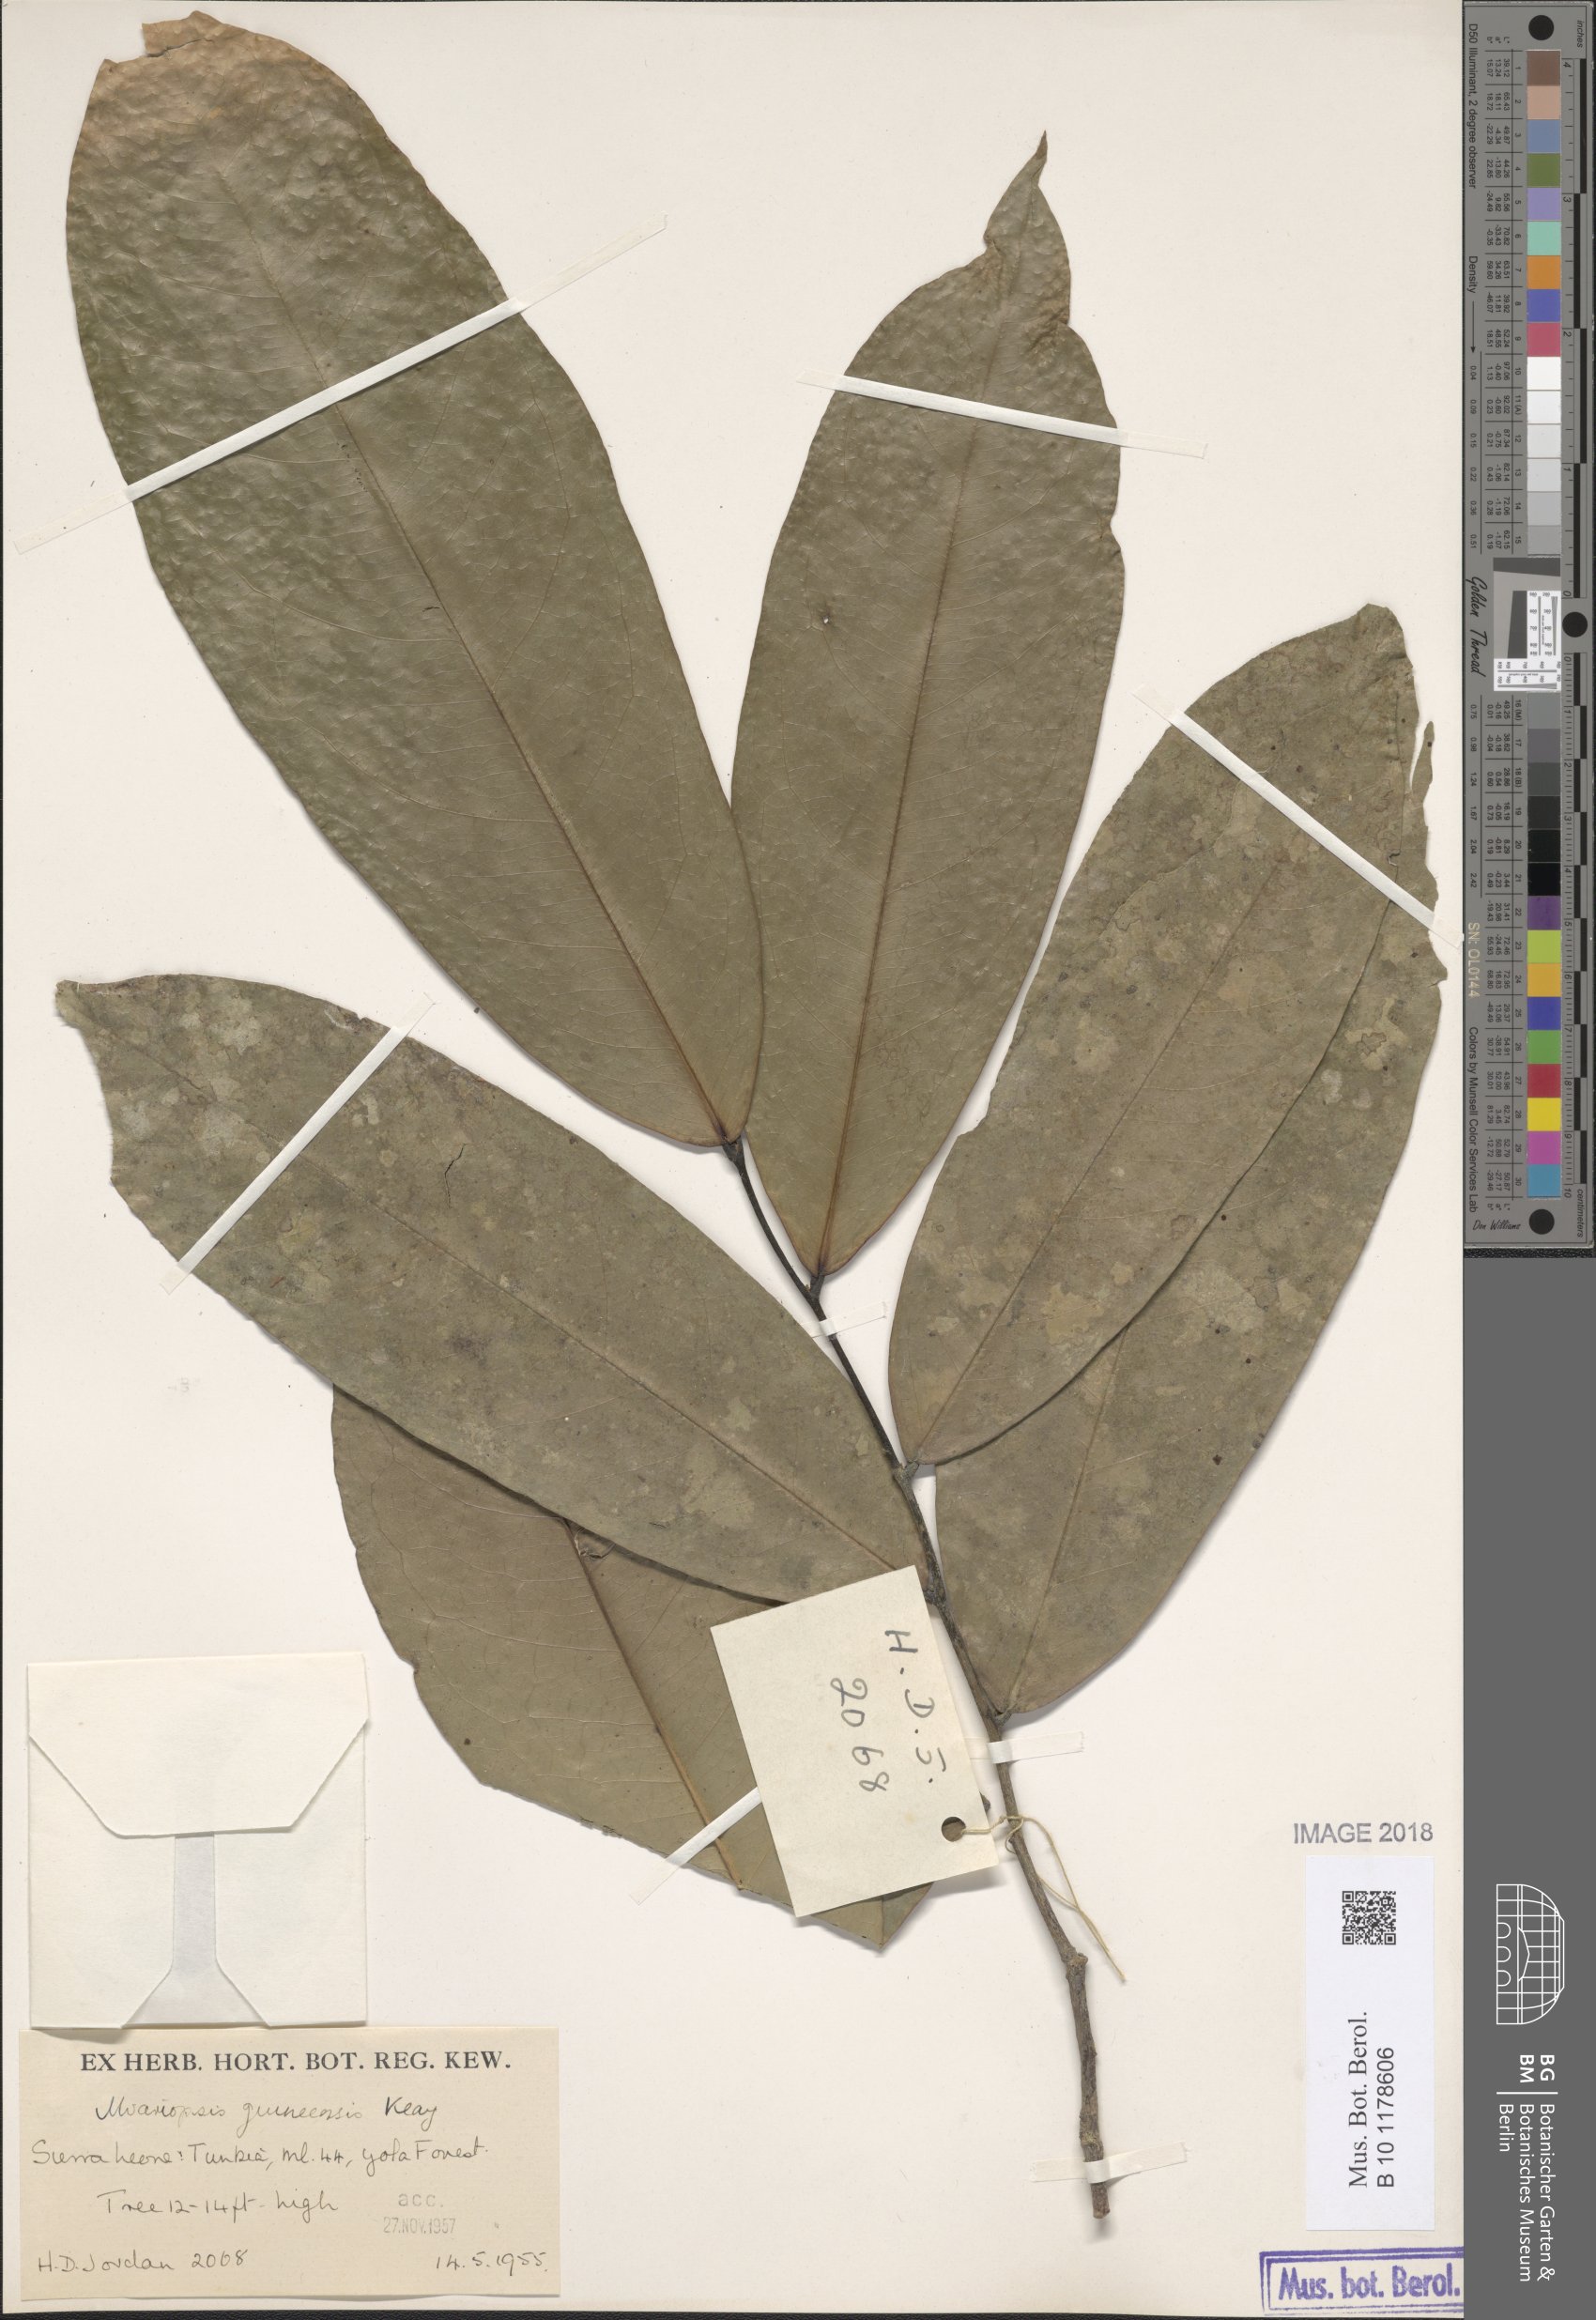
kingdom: Plantae
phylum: Tracheophyta
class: Magnoliopsida
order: Magnoliales
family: Annonaceae
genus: Uvariopsis
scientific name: Uvariopsis guineensis
